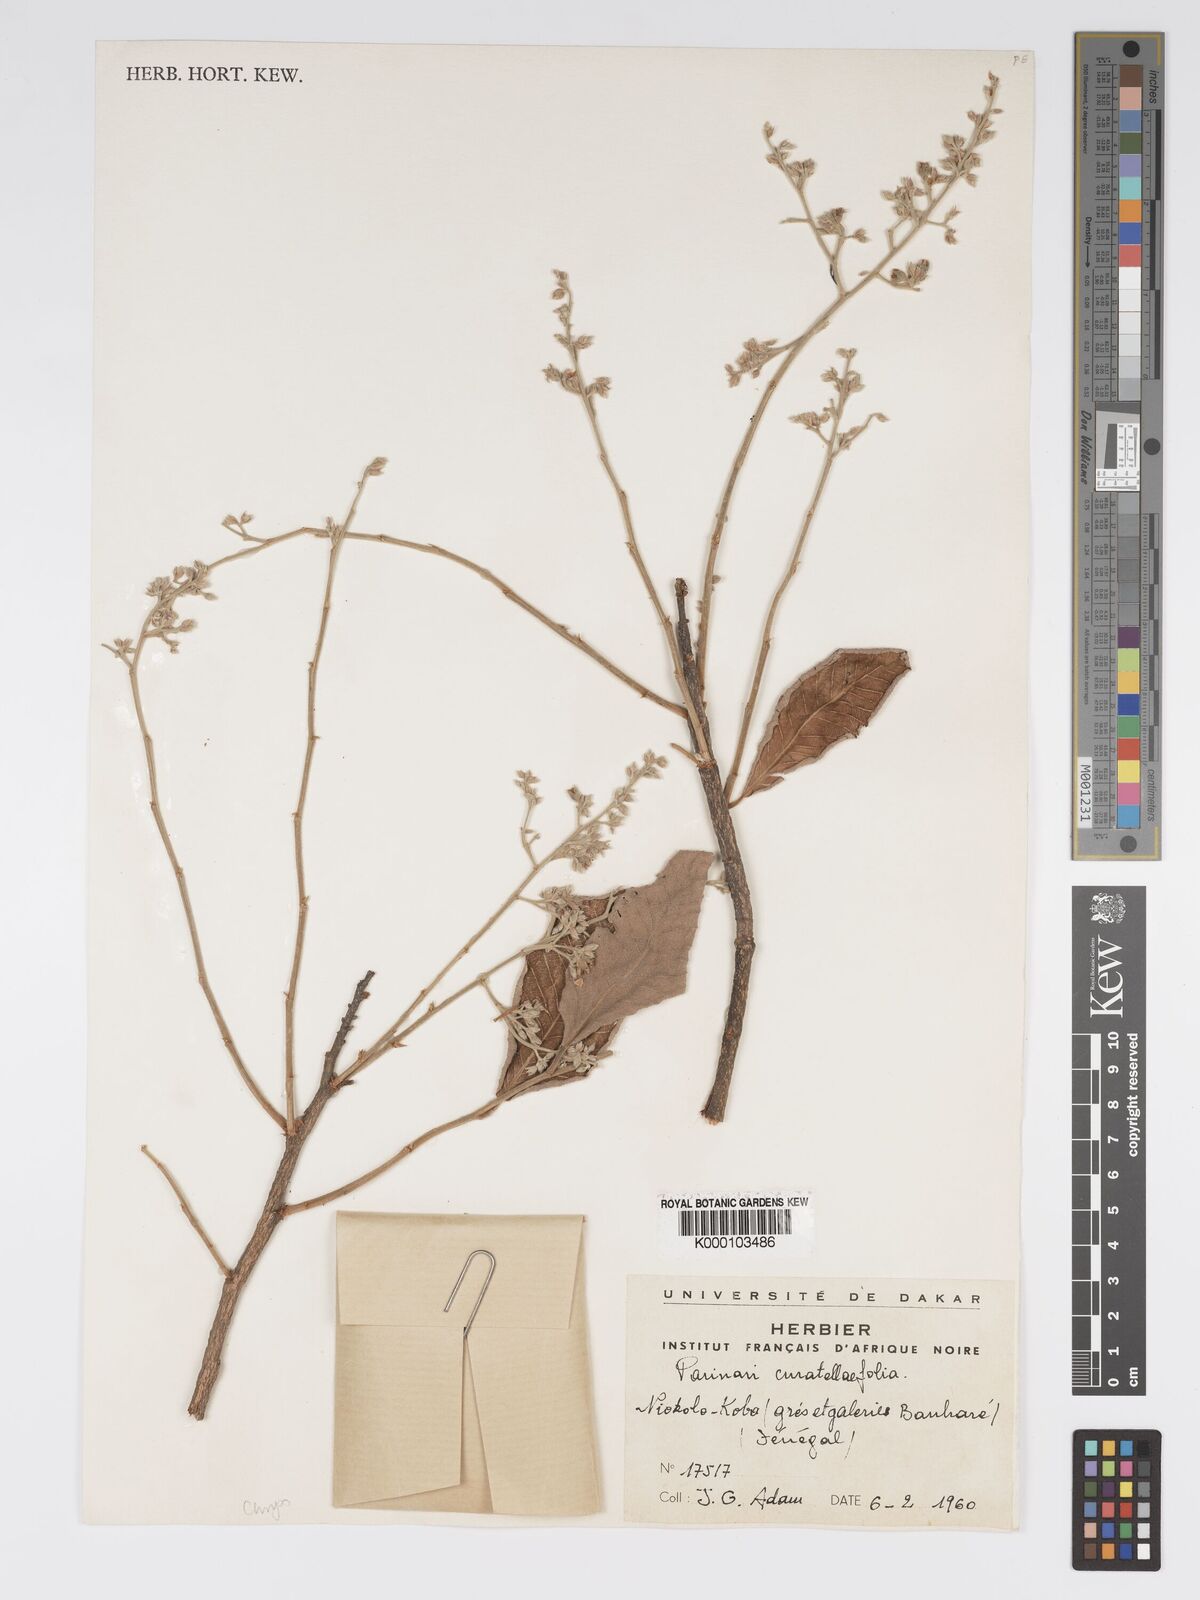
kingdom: Plantae
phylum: Tracheophyta
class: Magnoliopsida
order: Malpighiales
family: Chrysobalanaceae
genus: Parinari
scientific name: Parinari curatellifolia
